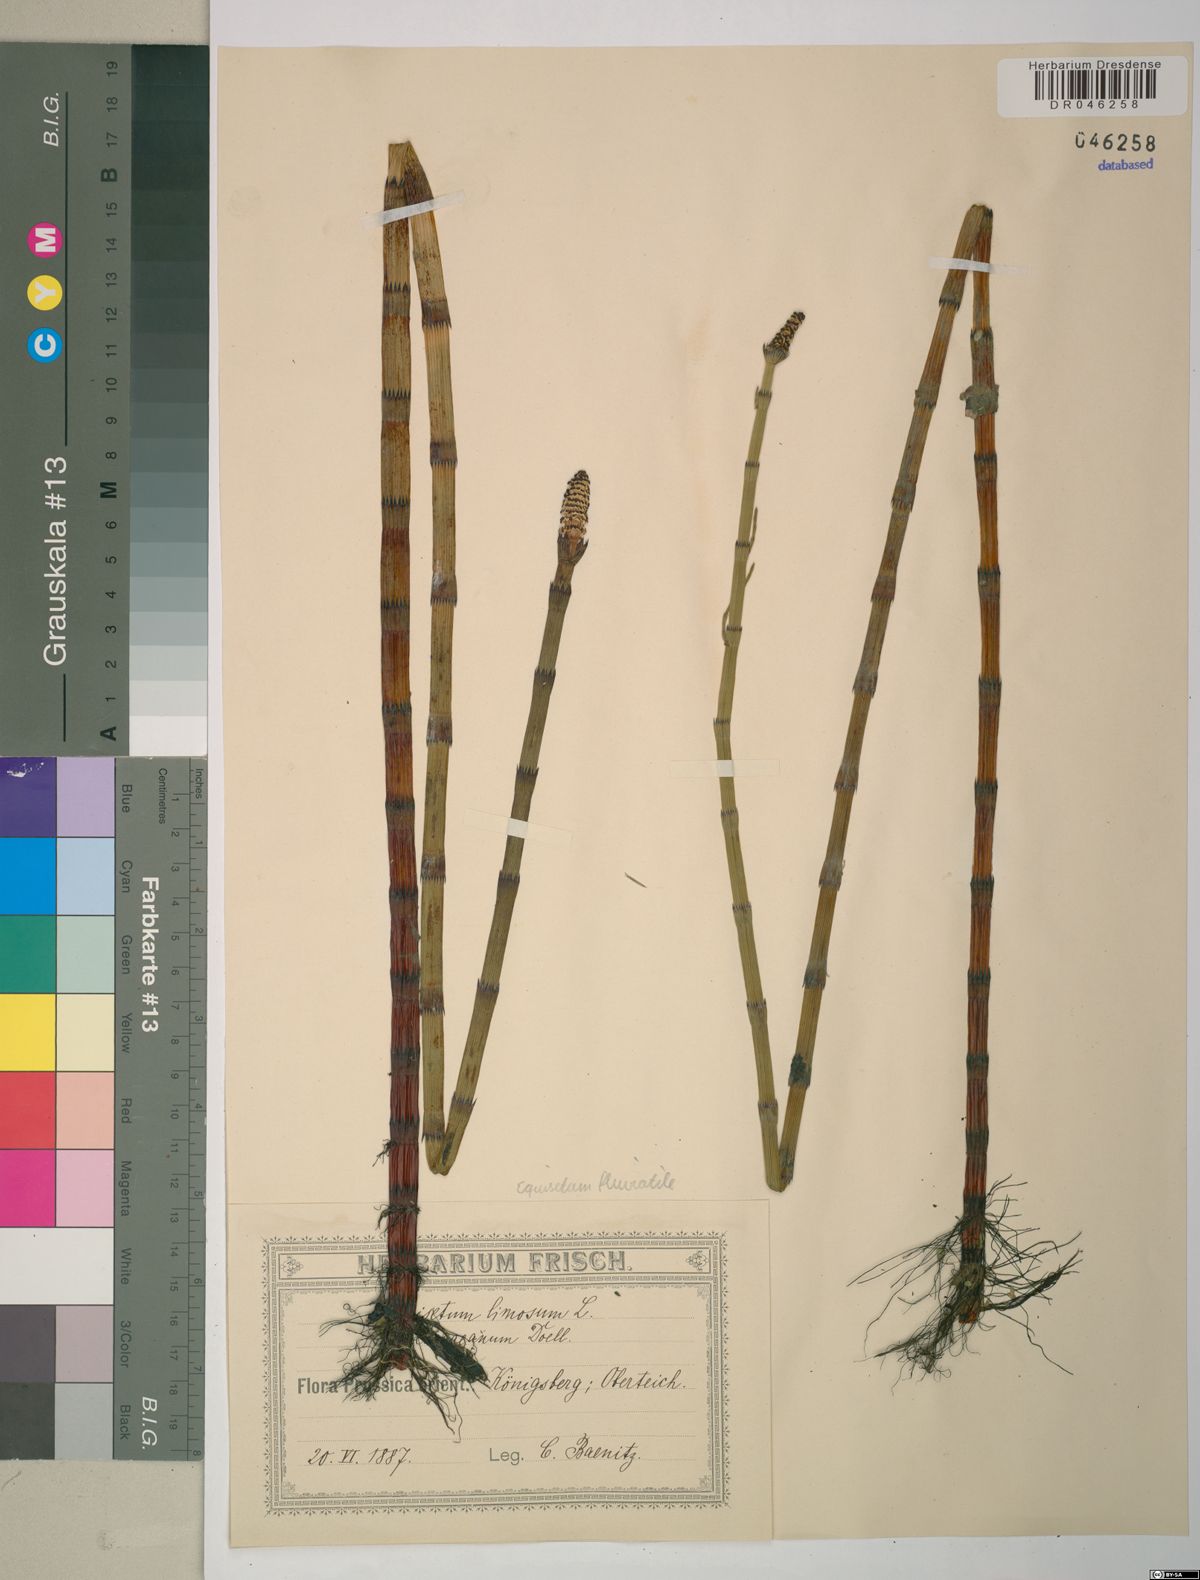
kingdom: Plantae
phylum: Tracheophyta
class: Polypodiopsida
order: Equisetales
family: Equisetaceae
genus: Equisetum
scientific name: Equisetum fluviatile
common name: Water horsetail
